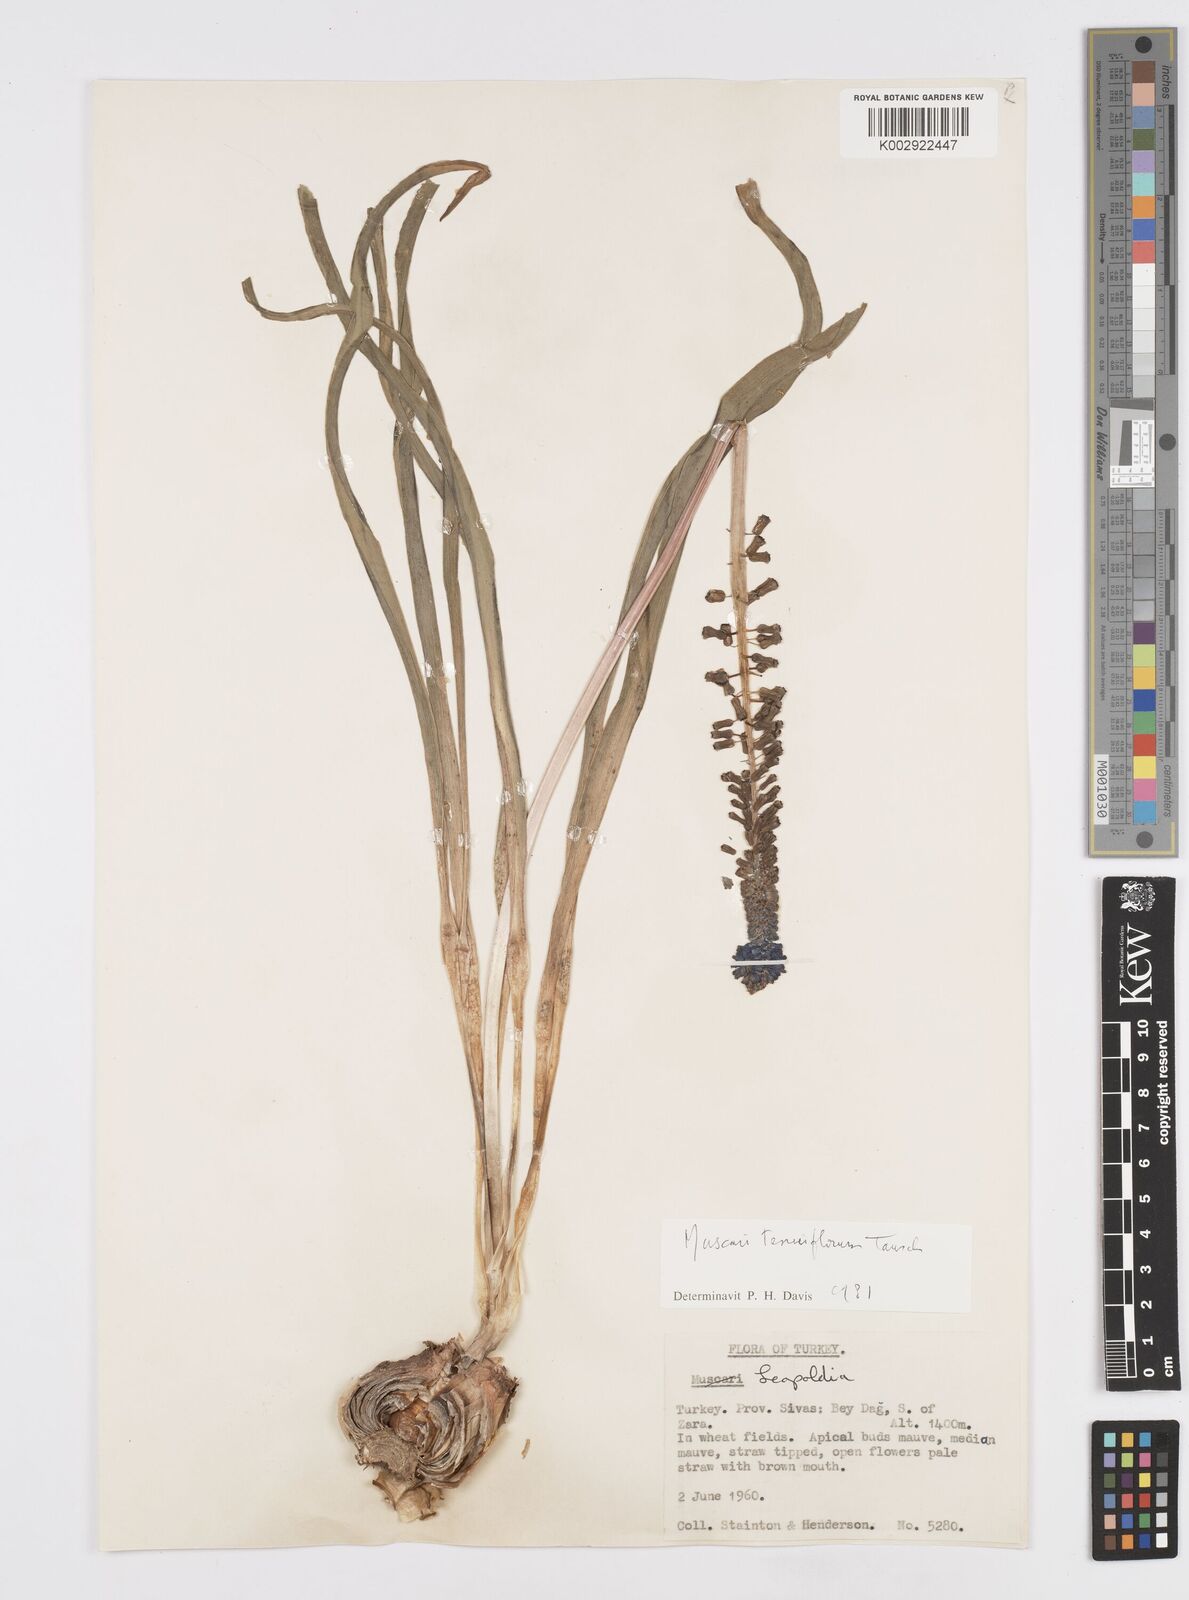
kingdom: Plantae
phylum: Tracheophyta
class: Liliopsida
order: Asparagales
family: Asparagaceae
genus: Muscari
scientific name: Muscari tenuiflorum
